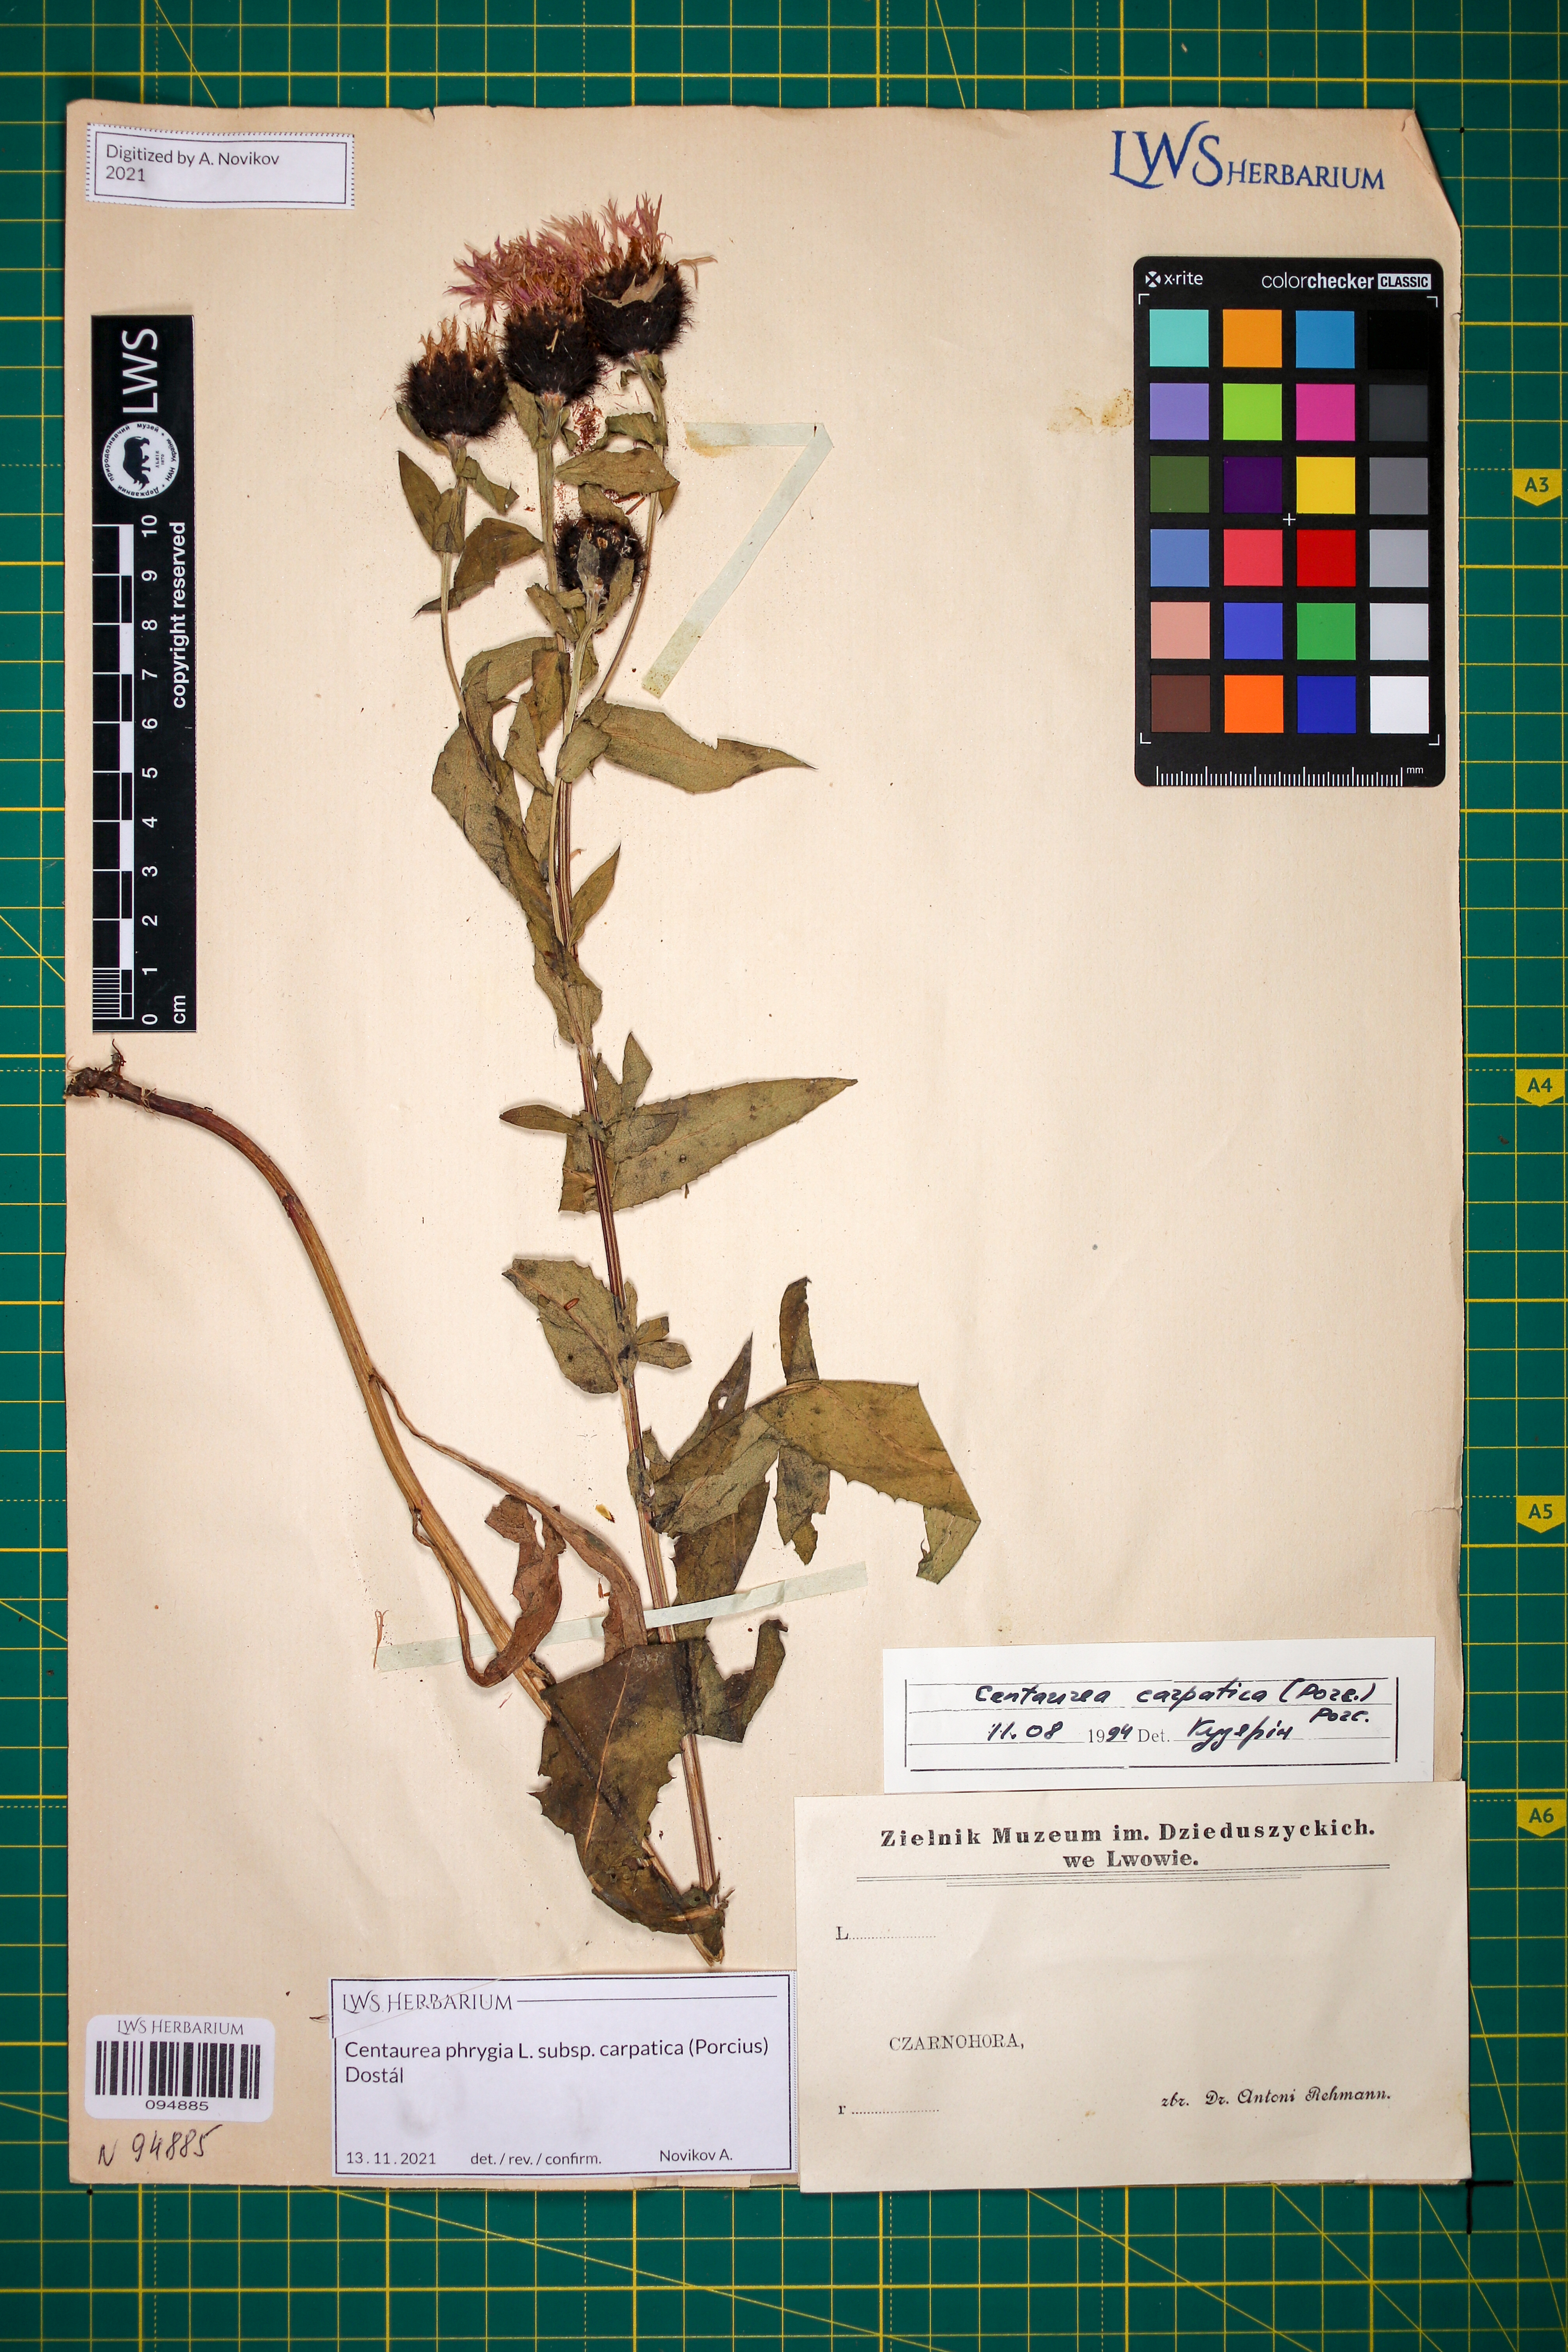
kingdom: Plantae
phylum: Tracheophyta
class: Magnoliopsida
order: Asterales
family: Asteraceae
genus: Centaurea
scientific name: Centaurea phrygia
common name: Wig knapweed
